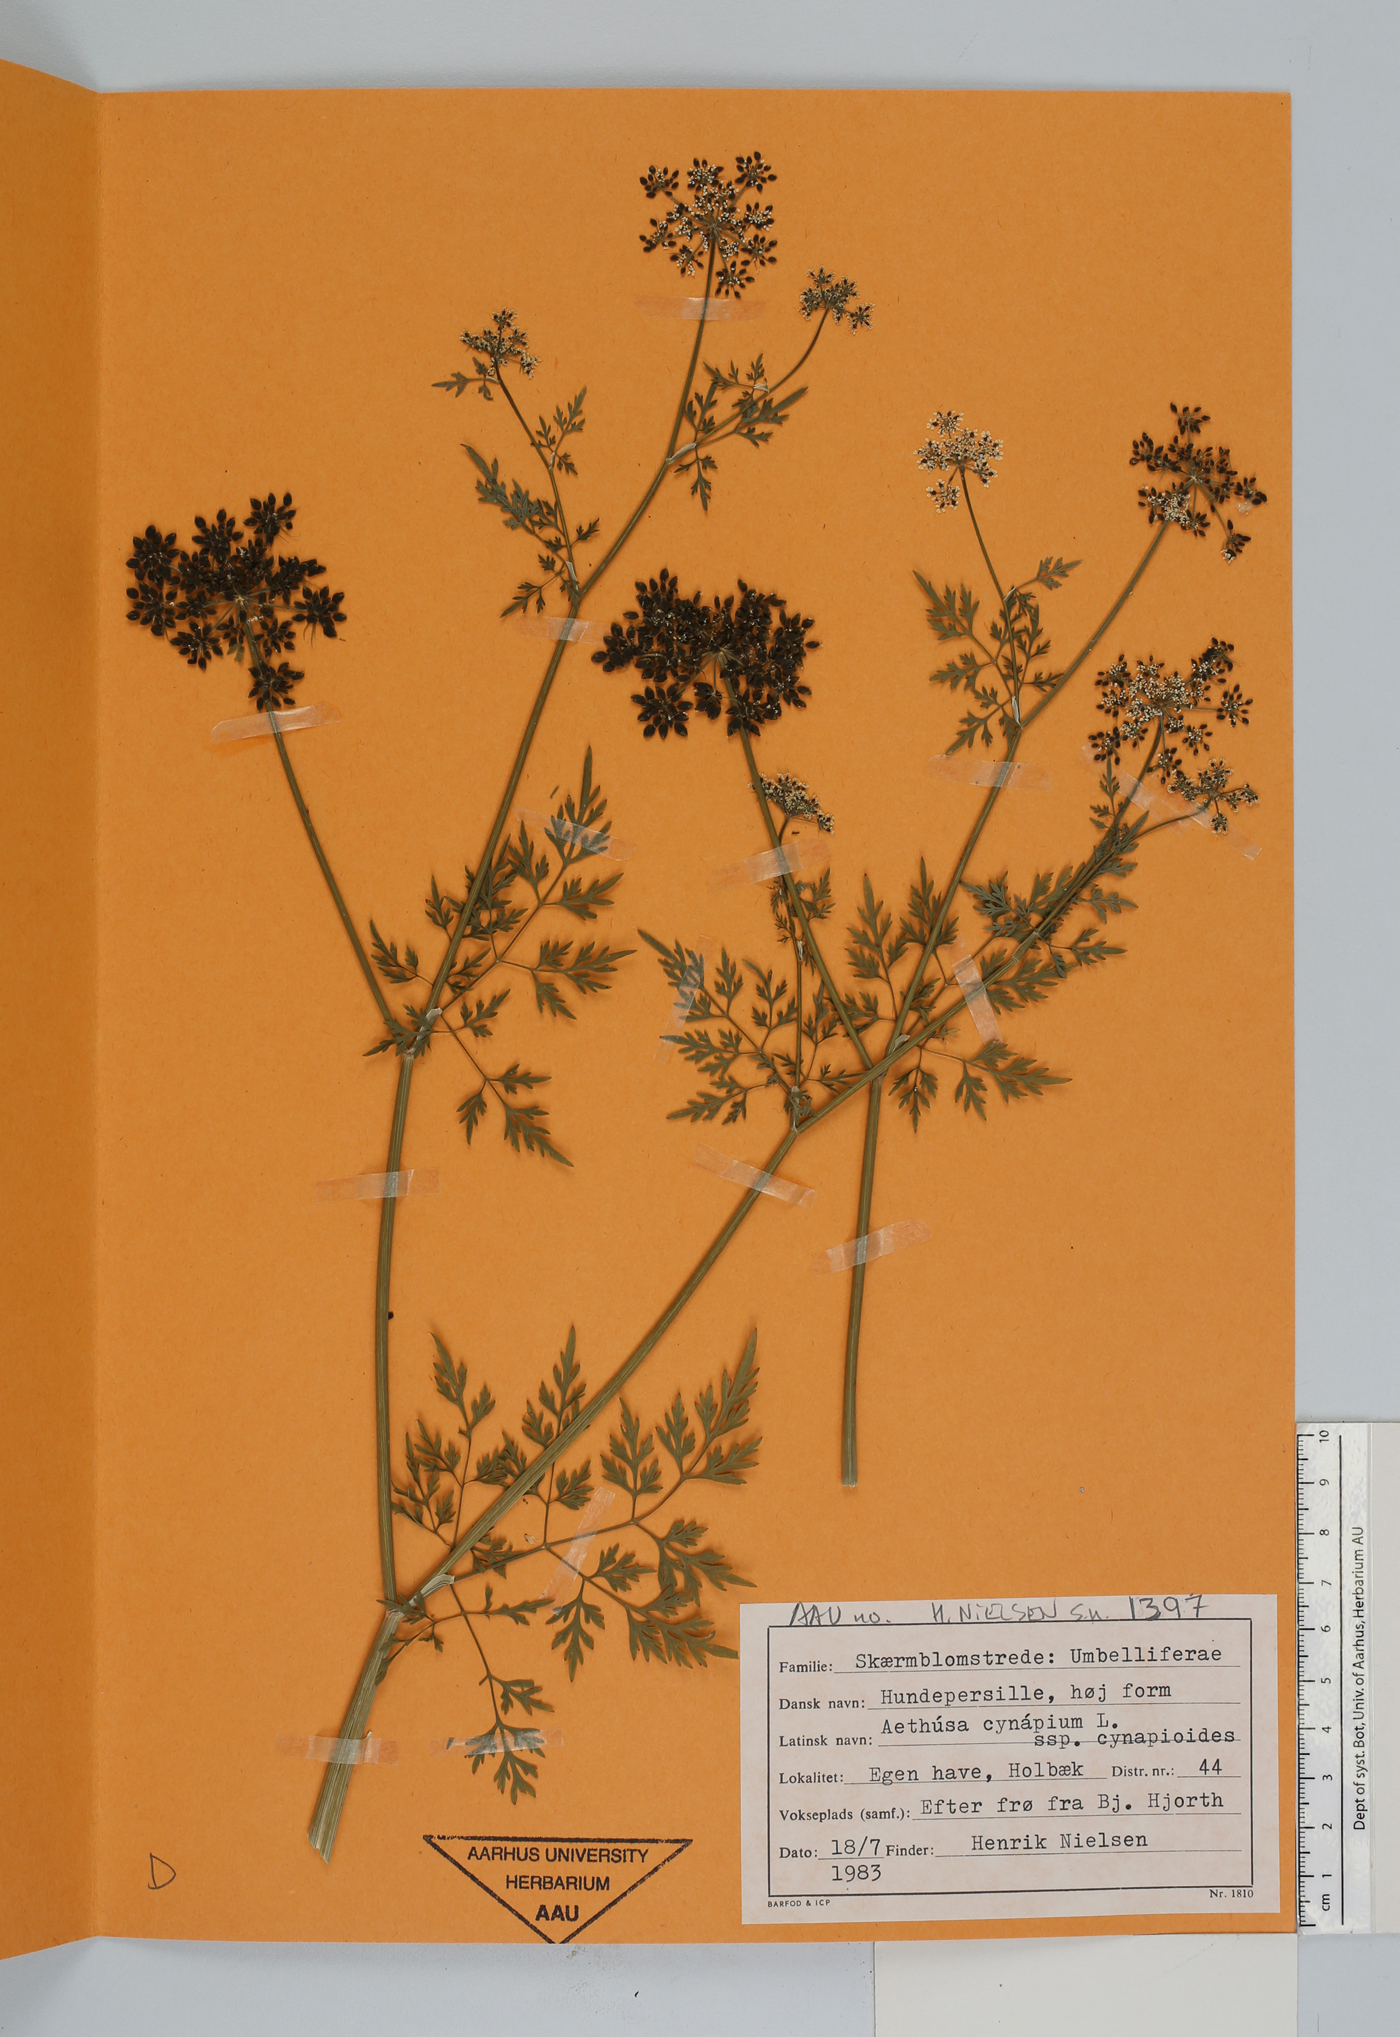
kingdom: Plantae
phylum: Tracheophyta
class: Magnoliopsida
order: Apiales
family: Apiaceae
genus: Aethusa
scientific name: Aethusa cynapium
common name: Fool's parsley
